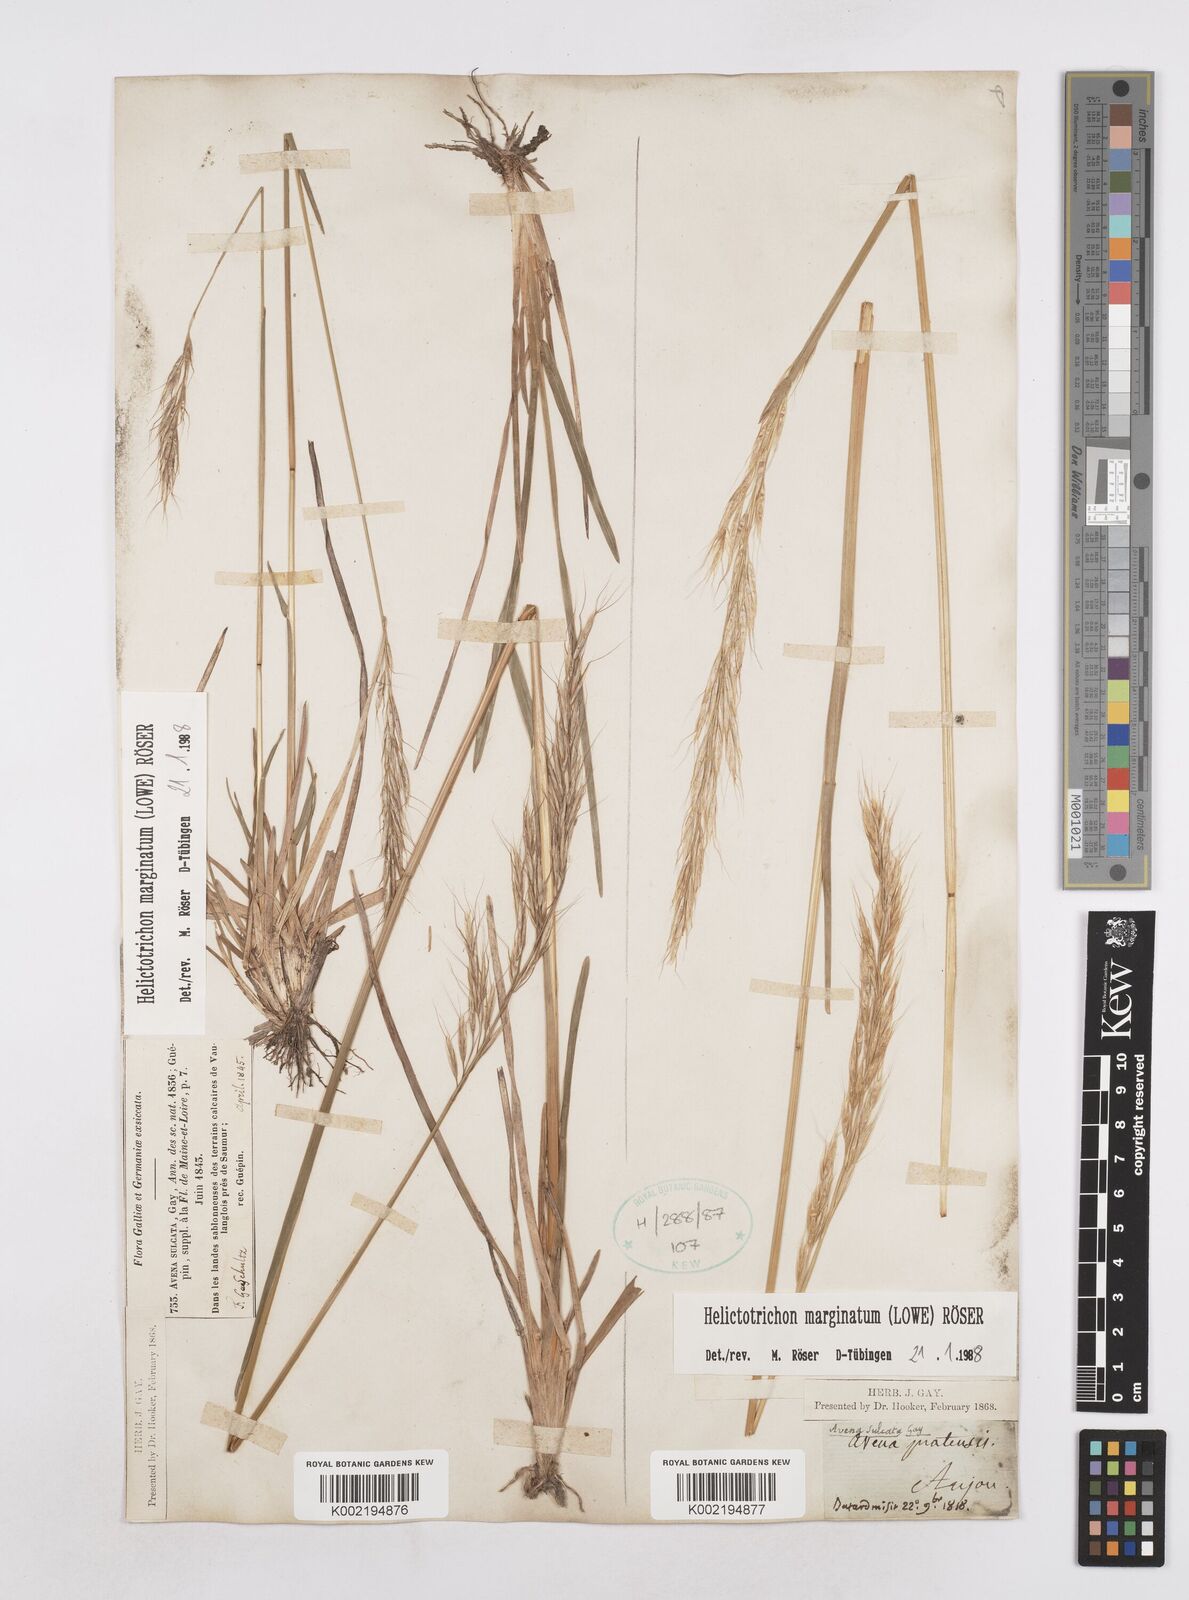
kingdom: Plantae
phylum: Tracheophyta
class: Liliopsida
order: Poales
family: Poaceae
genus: Helictotrichon
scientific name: Helictotrichon
